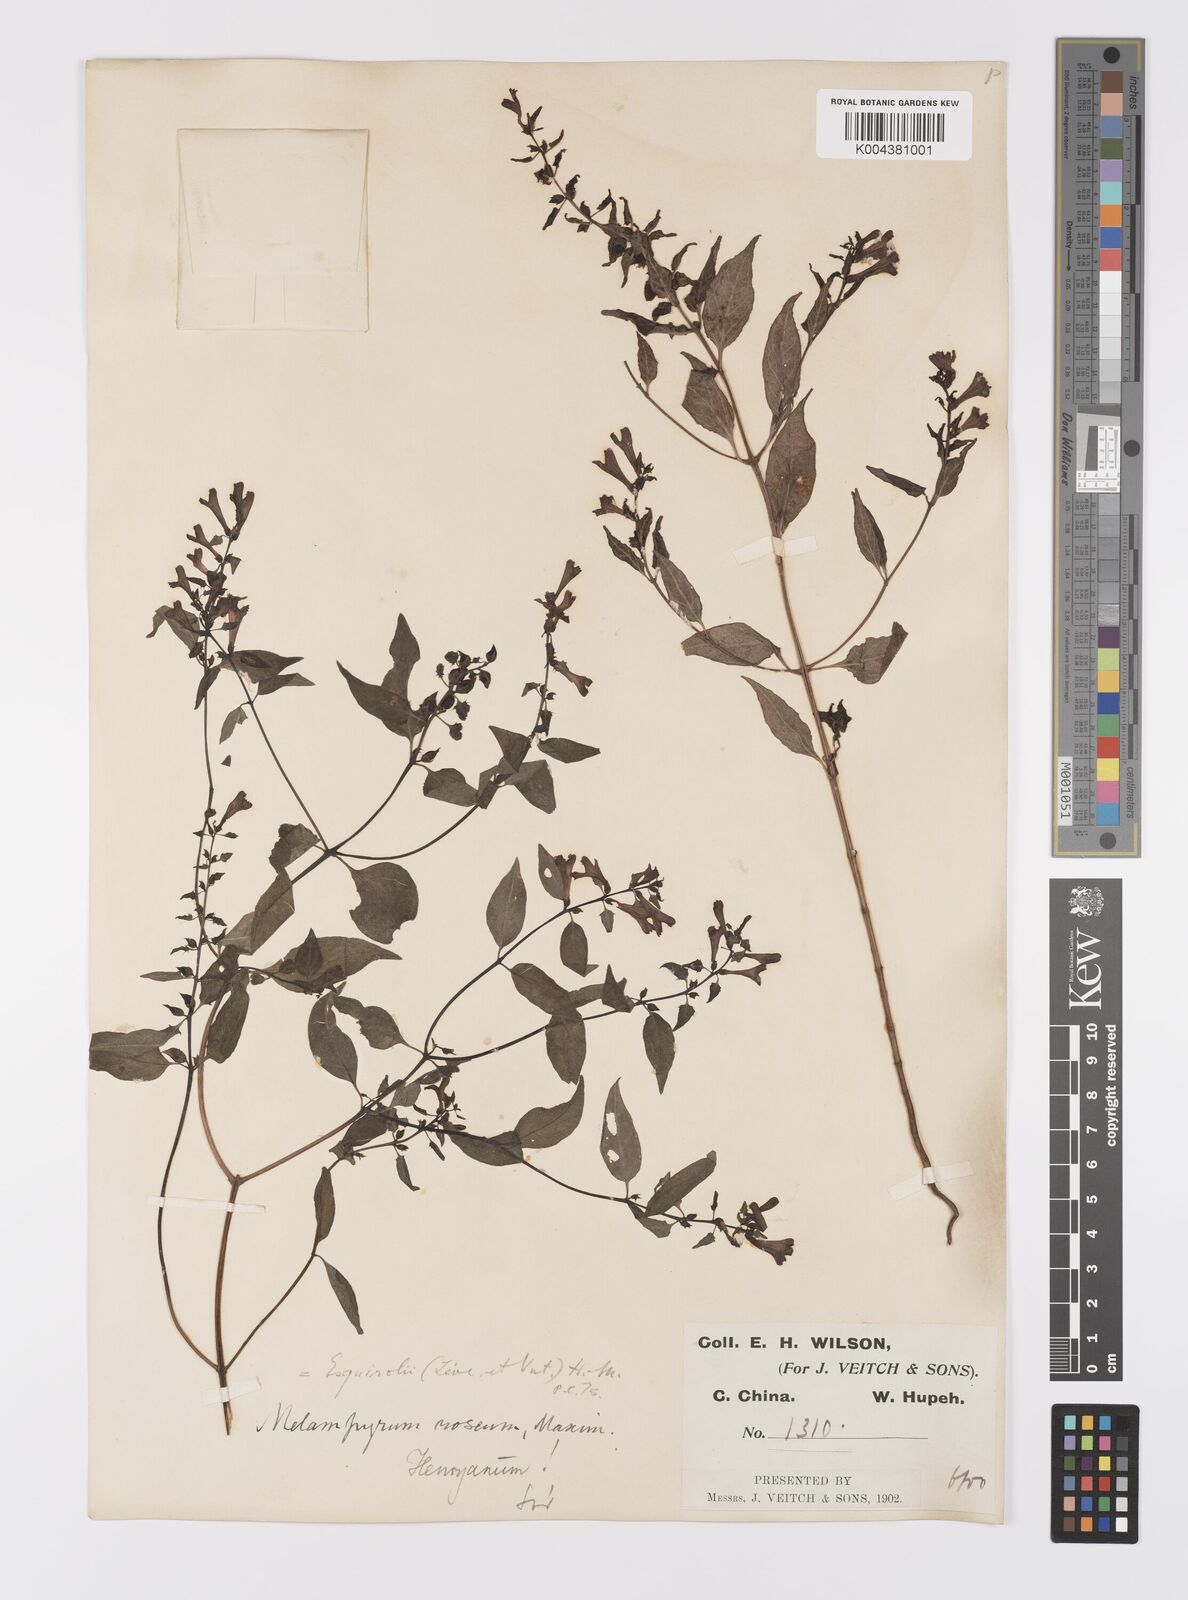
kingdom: Plantae
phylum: Tracheophyta
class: Magnoliopsida
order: Lamiales
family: Orobanchaceae
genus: Melampyrum
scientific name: Melampyrum roseum
